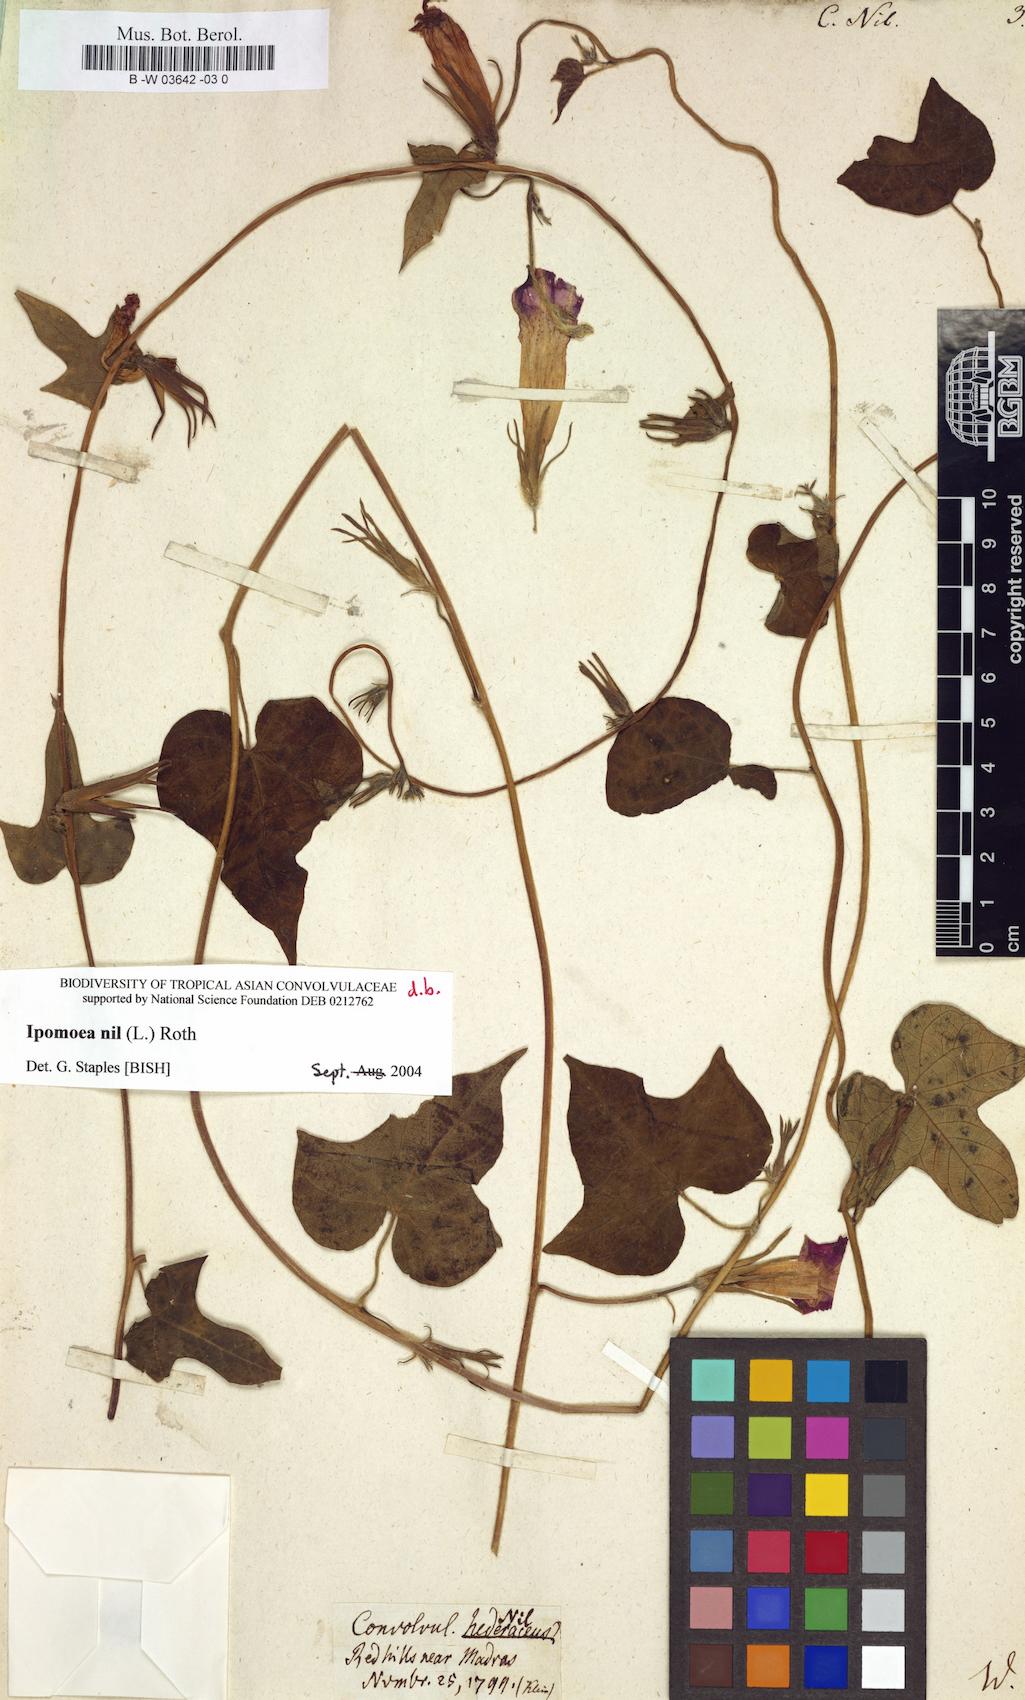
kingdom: Plantae
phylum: Tracheophyta
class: Magnoliopsida
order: Solanales
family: Convolvulaceae
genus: Ipomoea
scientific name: Ipomoea nil
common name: Japanese morning-glory
